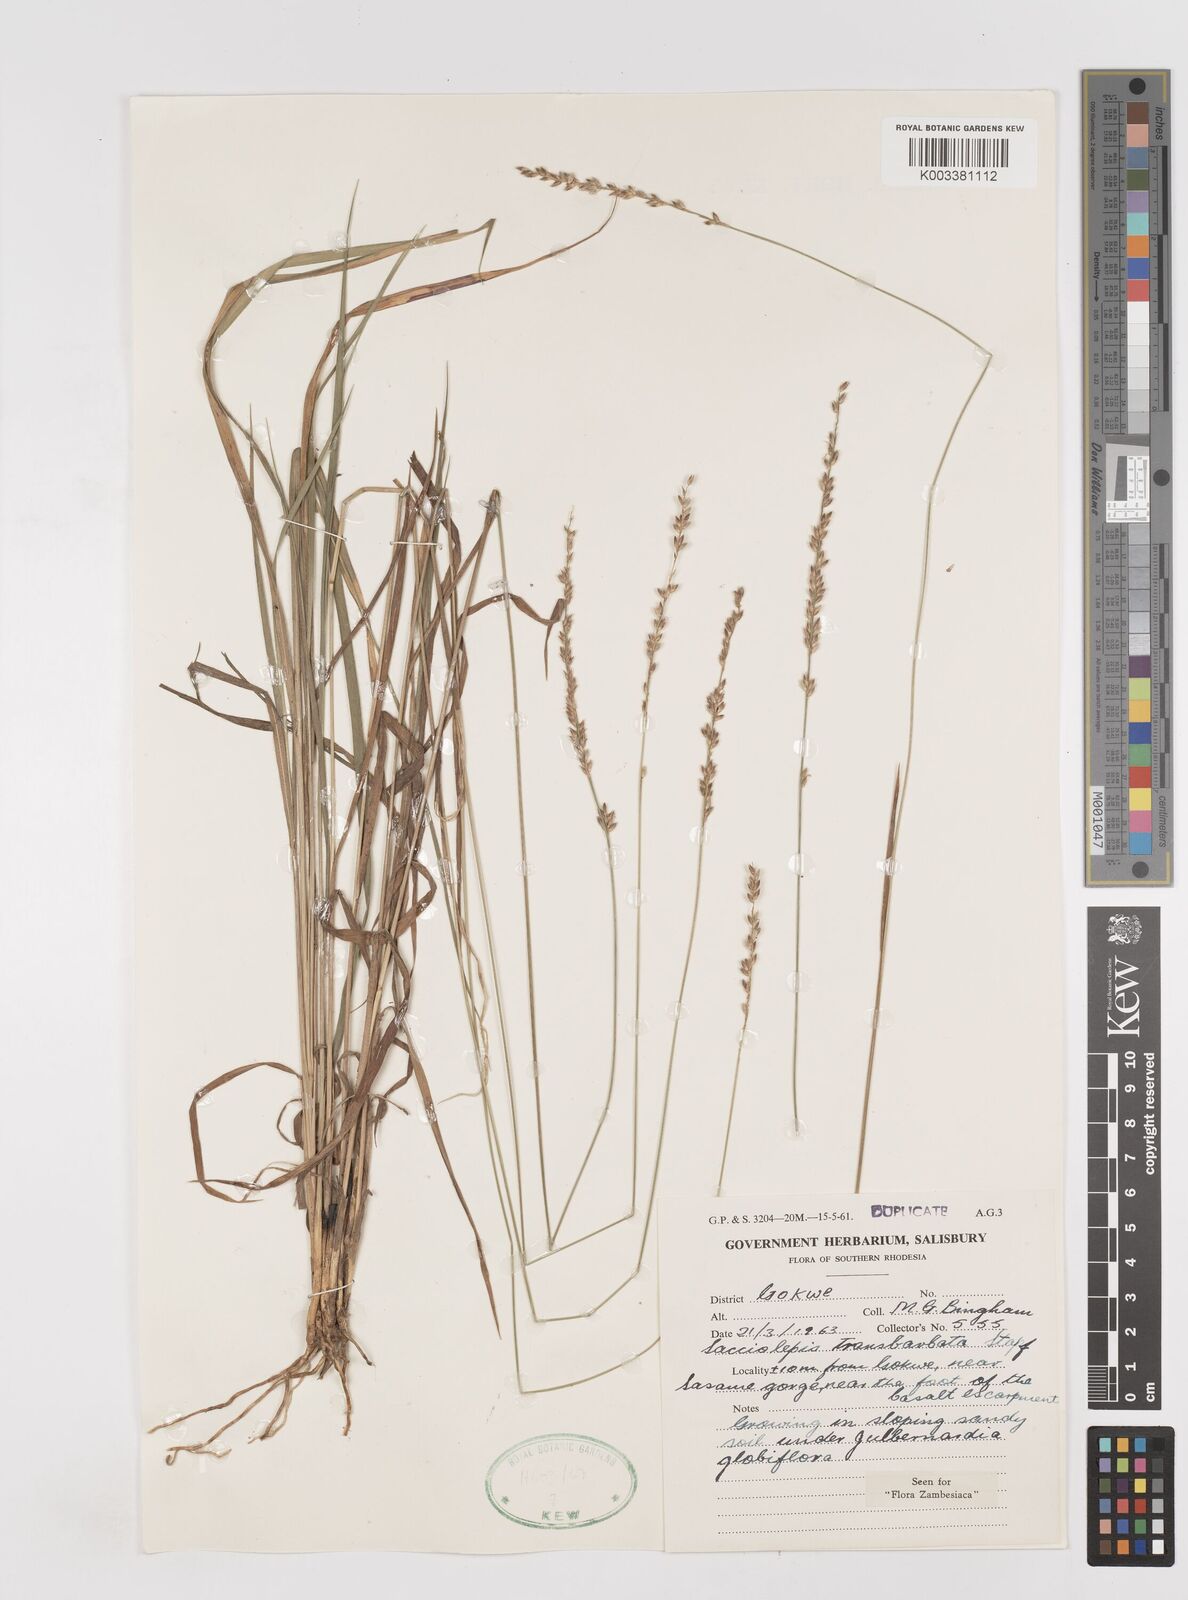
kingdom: Plantae
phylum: Tracheophyta
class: Liliopsida
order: Poales
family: Poaceae
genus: Sacciolepis
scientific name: Sacciolepis transbarbata
